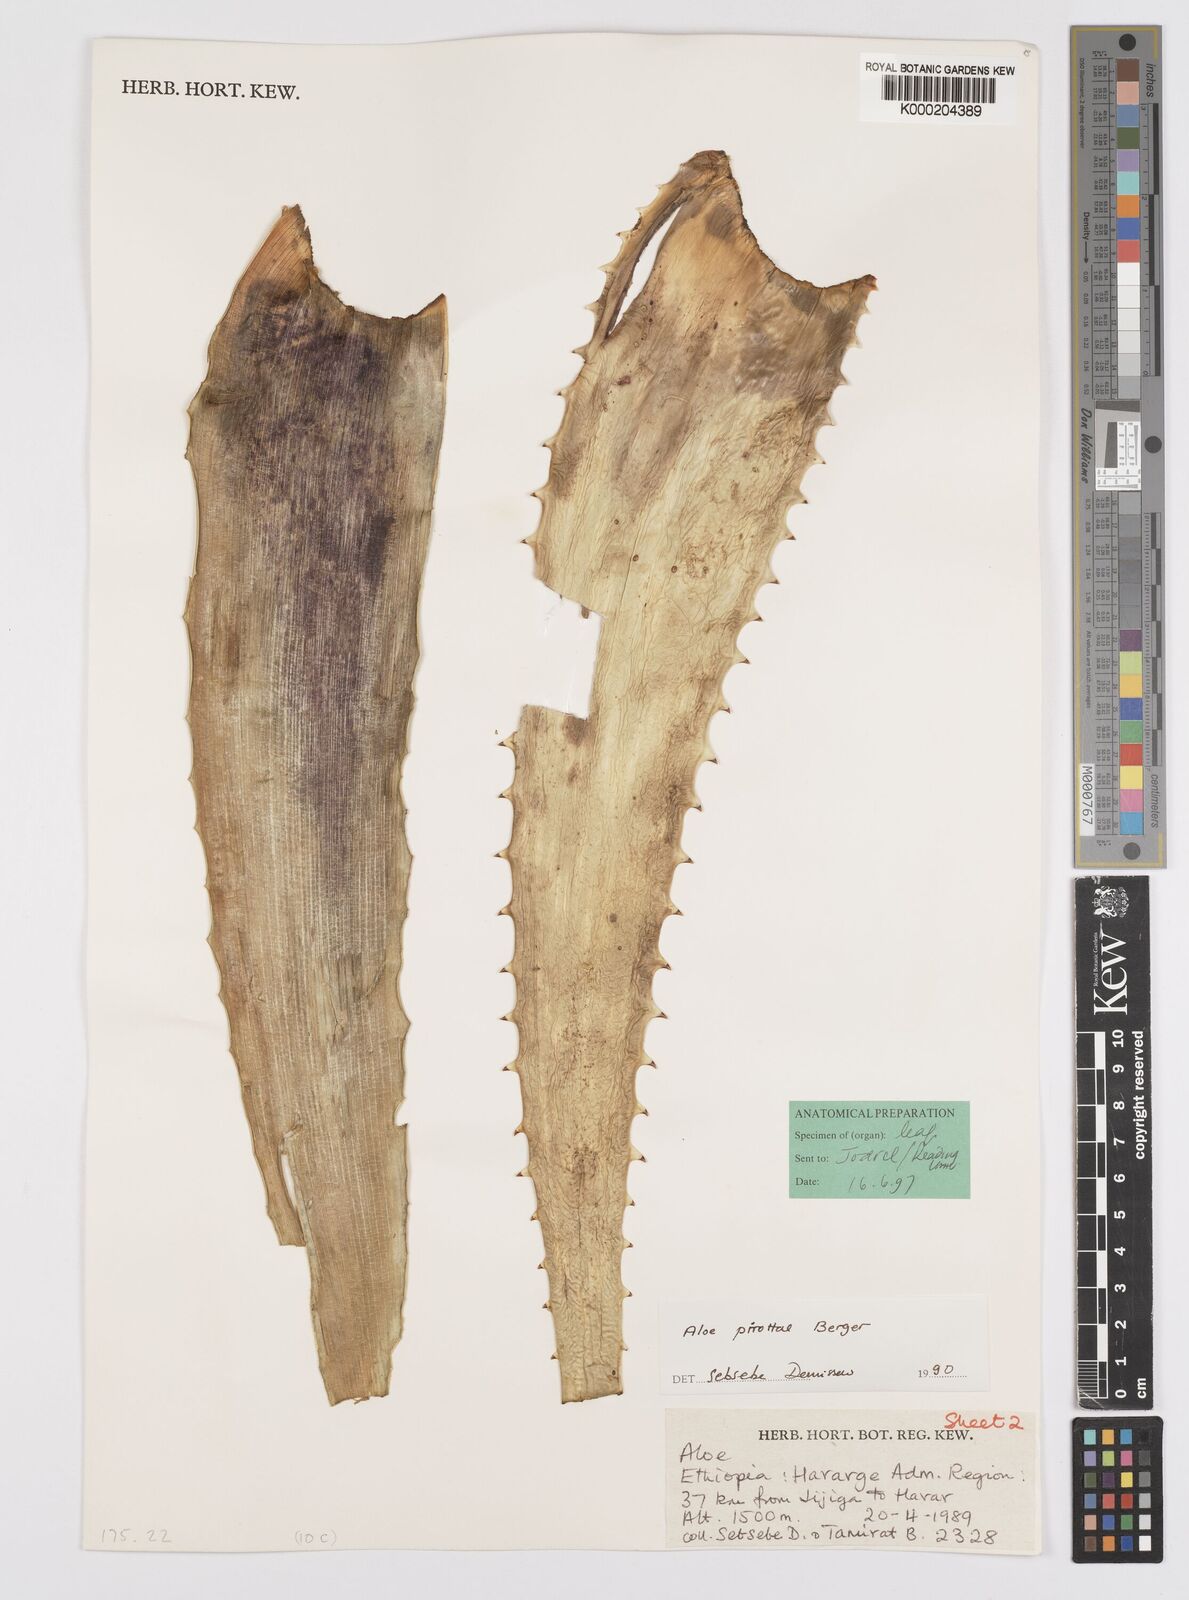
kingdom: Plantae
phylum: Tracheophyta
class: Liliopsida
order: Asparagales
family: Asphodelaceae
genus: Aloe
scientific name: Aloe pirottae
